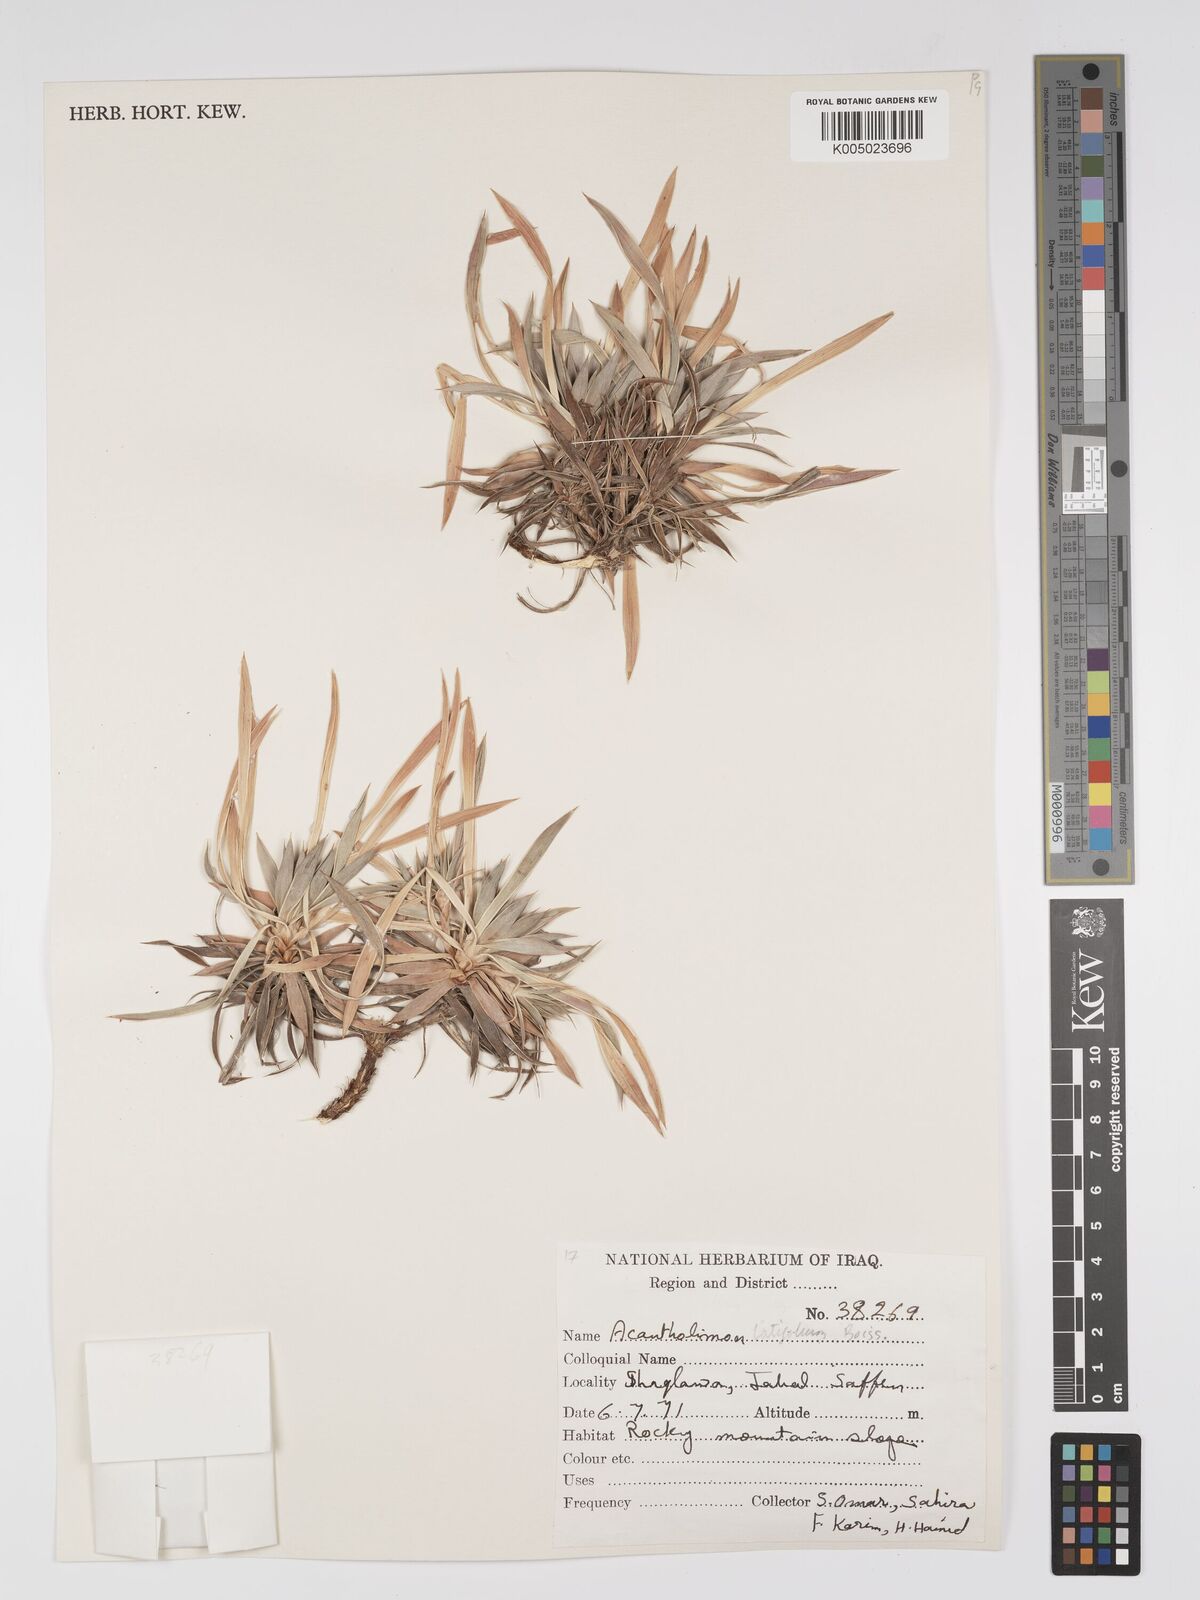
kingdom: Plantae
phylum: Tracheophyta
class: Magnoliopsida
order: Caryophyllales
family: Plumbaginaceae
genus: Acantholimon
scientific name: Acantholimon
